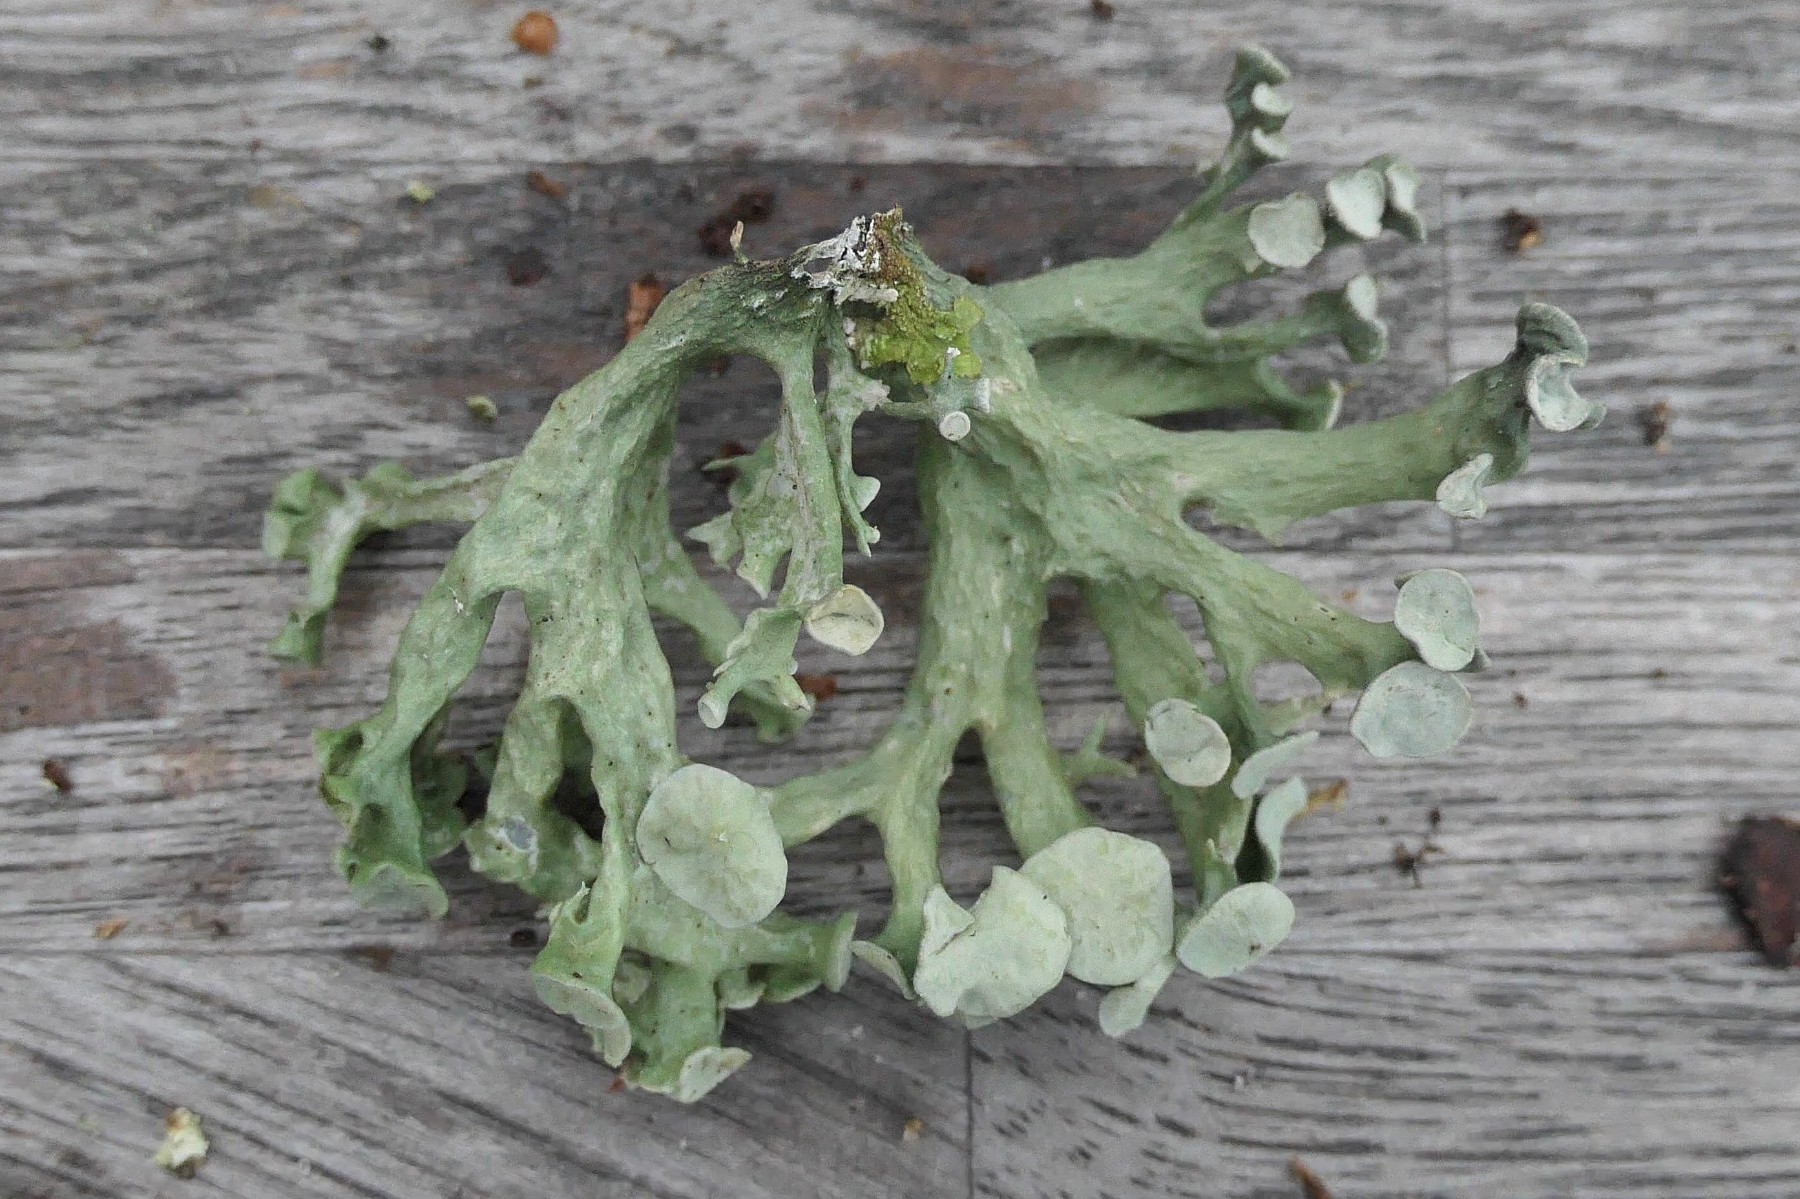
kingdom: Fungi
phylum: Ascomycota
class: Lecanoromycetes
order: Lecanorales
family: Ramalinaceae
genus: Ramalina
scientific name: Ramalina fastigiata
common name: tue-grenlav
